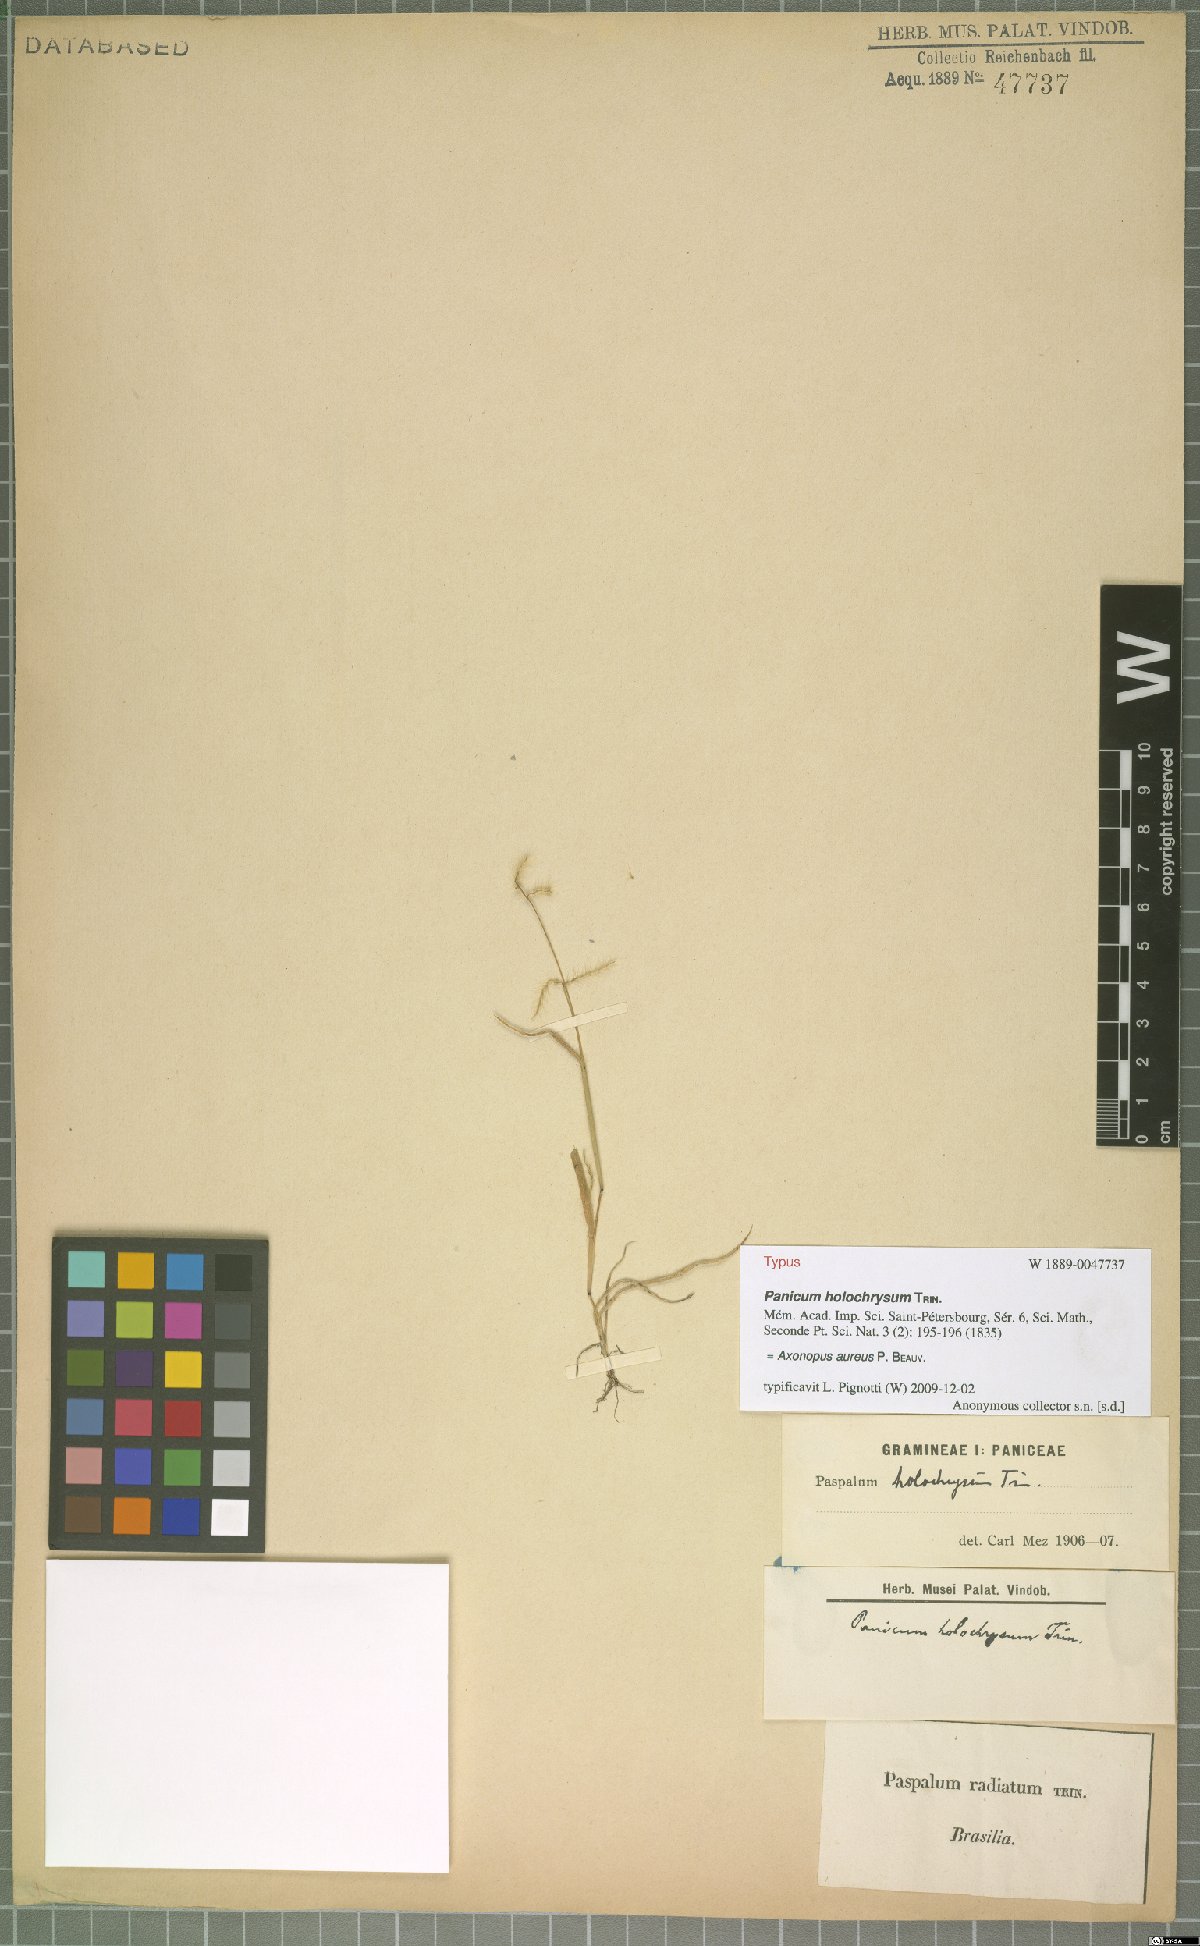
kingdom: Plantae
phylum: Tracheophyta
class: Liliopsida
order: Poales
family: Poaceae
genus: Axonopus
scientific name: Axonopus aureus
